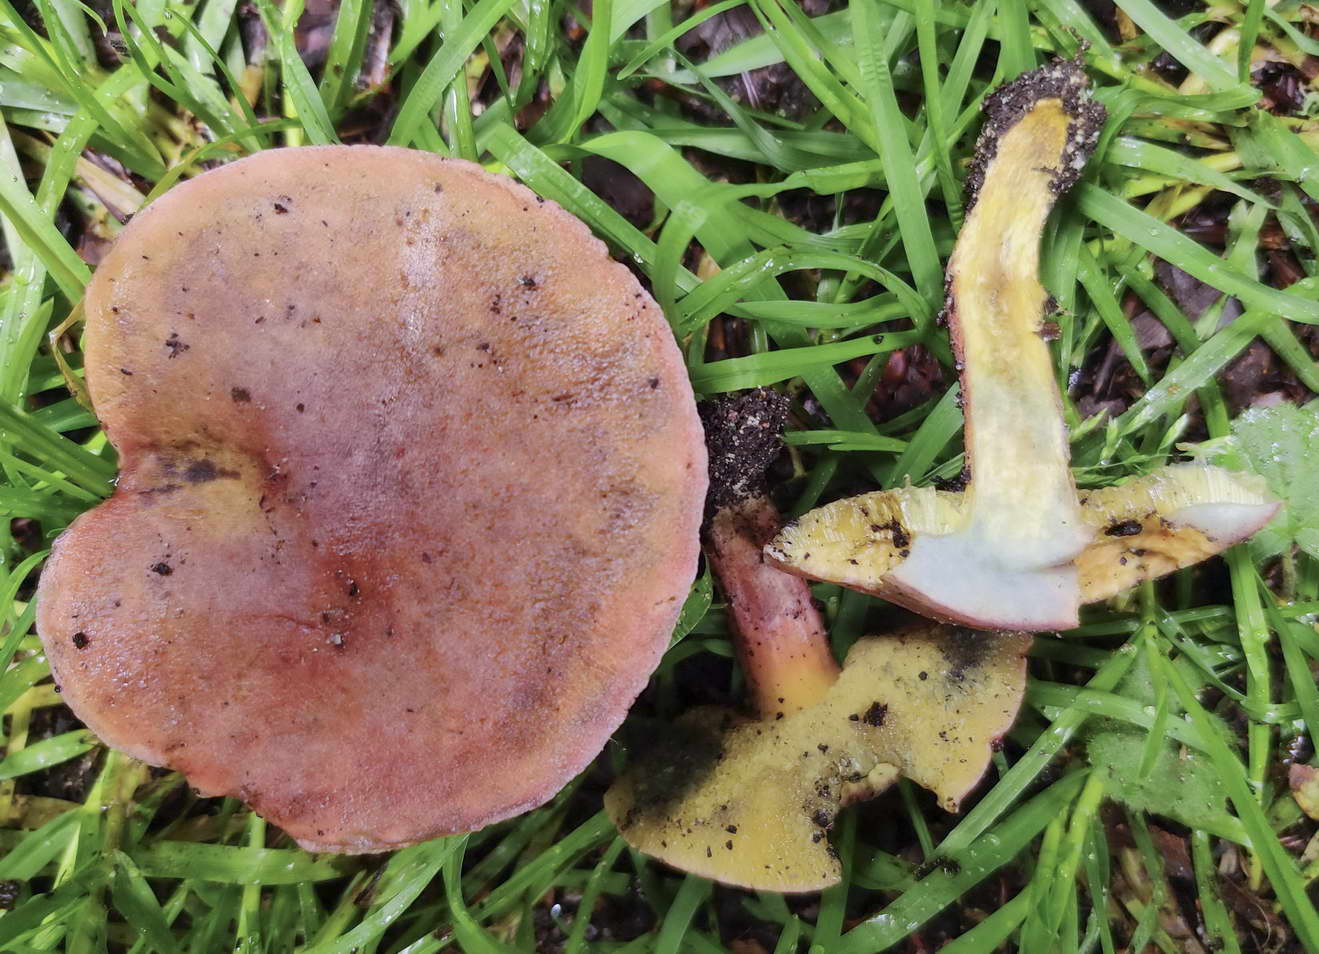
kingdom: Fungi
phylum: Basidiomycota
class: Agaricomycetes
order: Boletales
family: Boletaceae
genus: Hortiboletus
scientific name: Hortiboletus bubalinus
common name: aurora-rørhat
